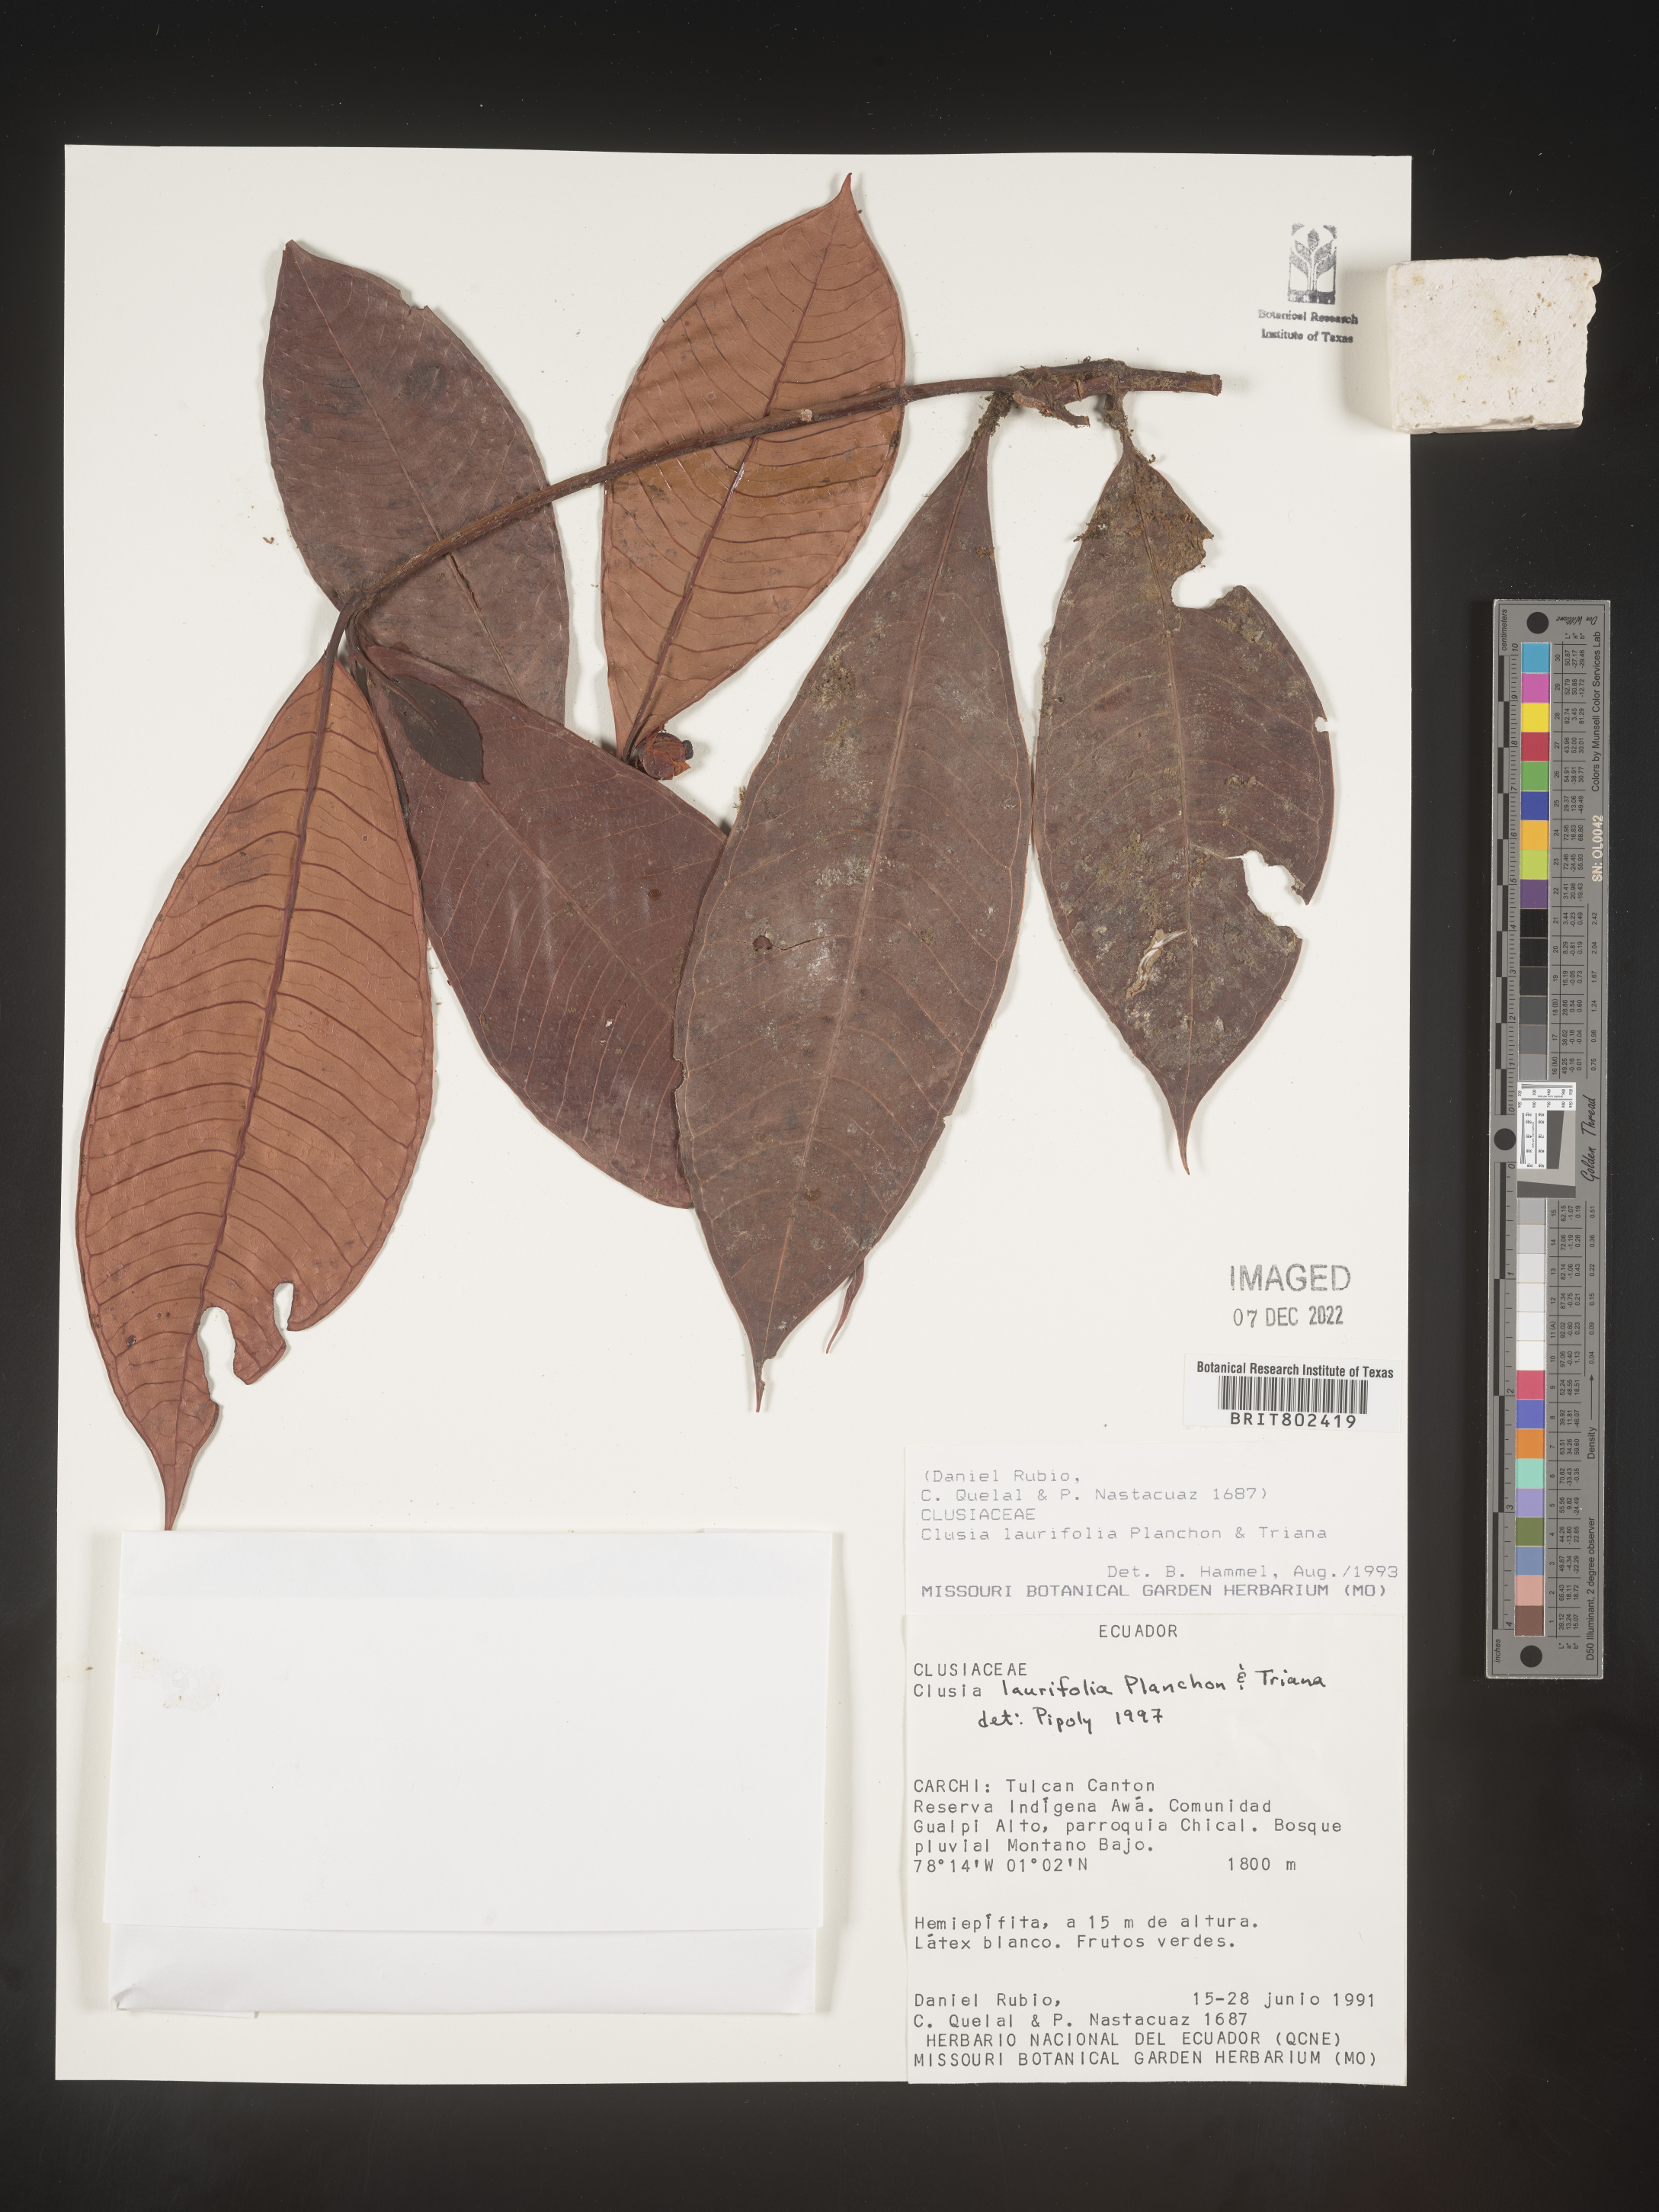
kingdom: Plantae
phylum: Tracheophyta
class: Magnoliopsida
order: Malpighiales
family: Clusiaceae
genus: Clusia
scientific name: Clusia laurifolia
